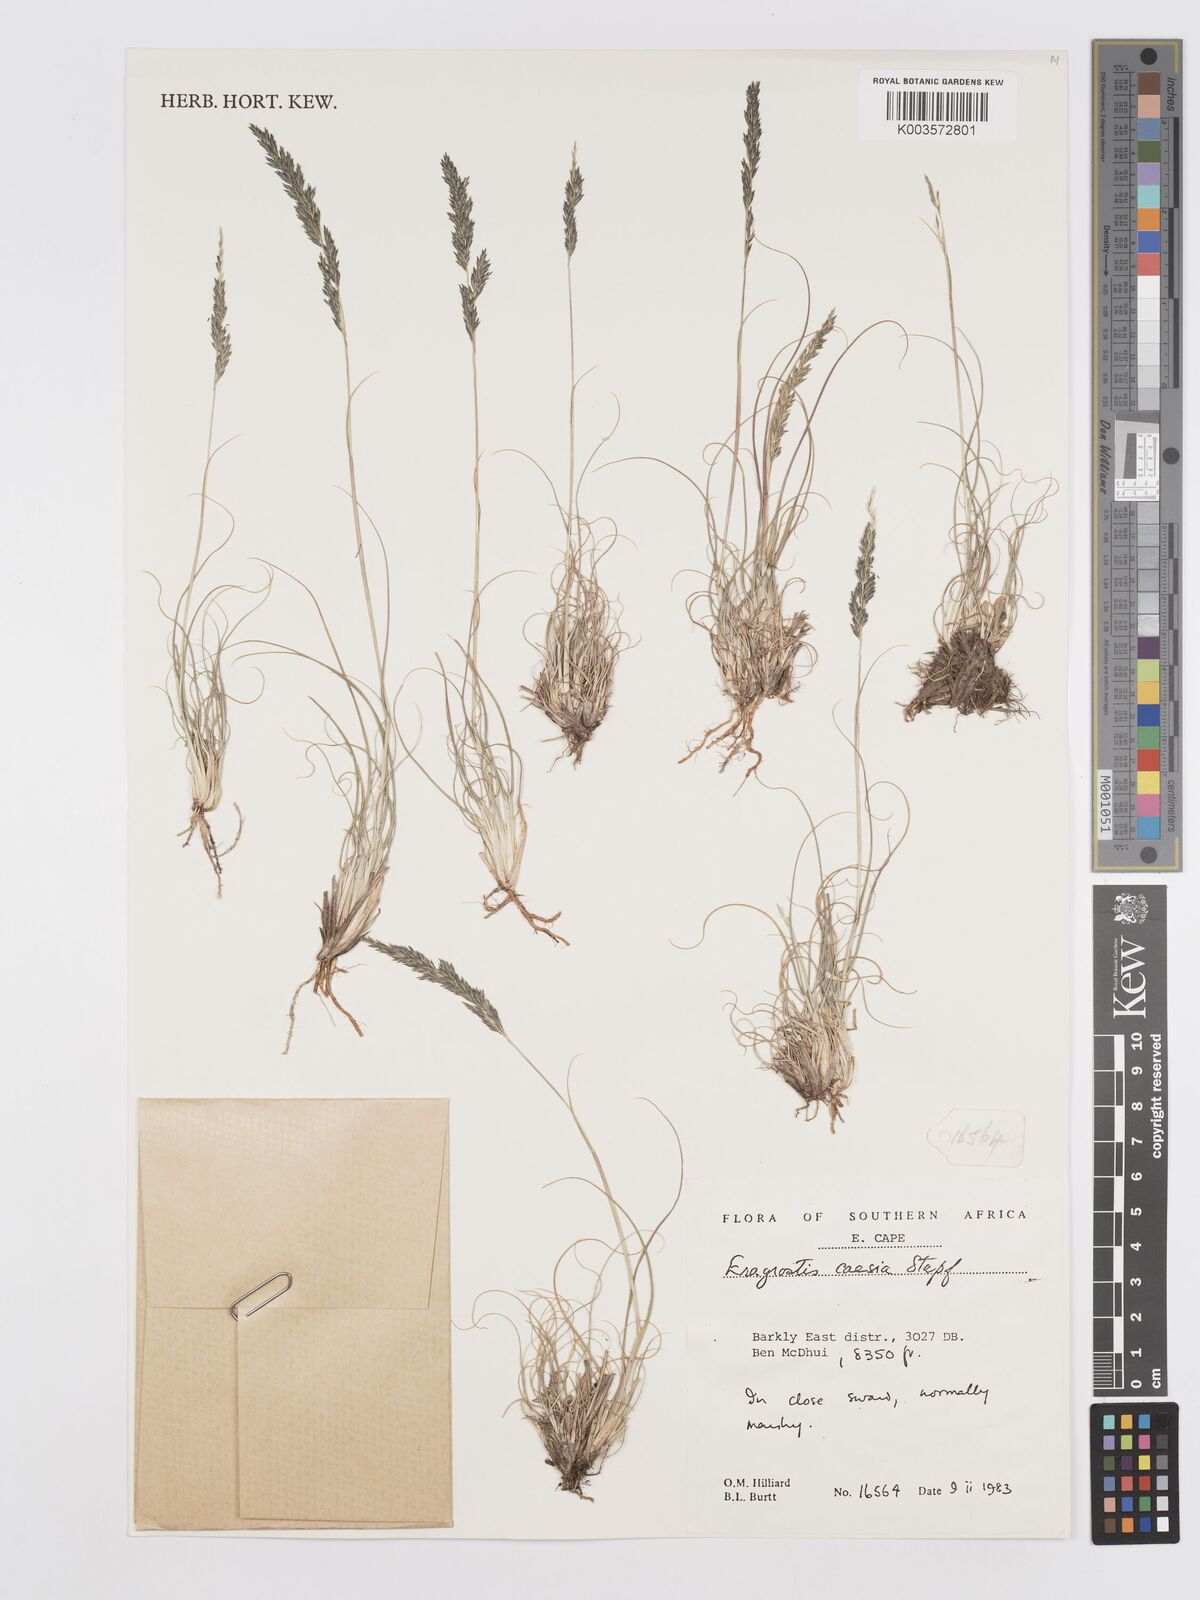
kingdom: Plantae
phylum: Tracheophyta
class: Liliopsida
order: Poales
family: Poaceae
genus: Eragrostis
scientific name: Eragrostis caesia
